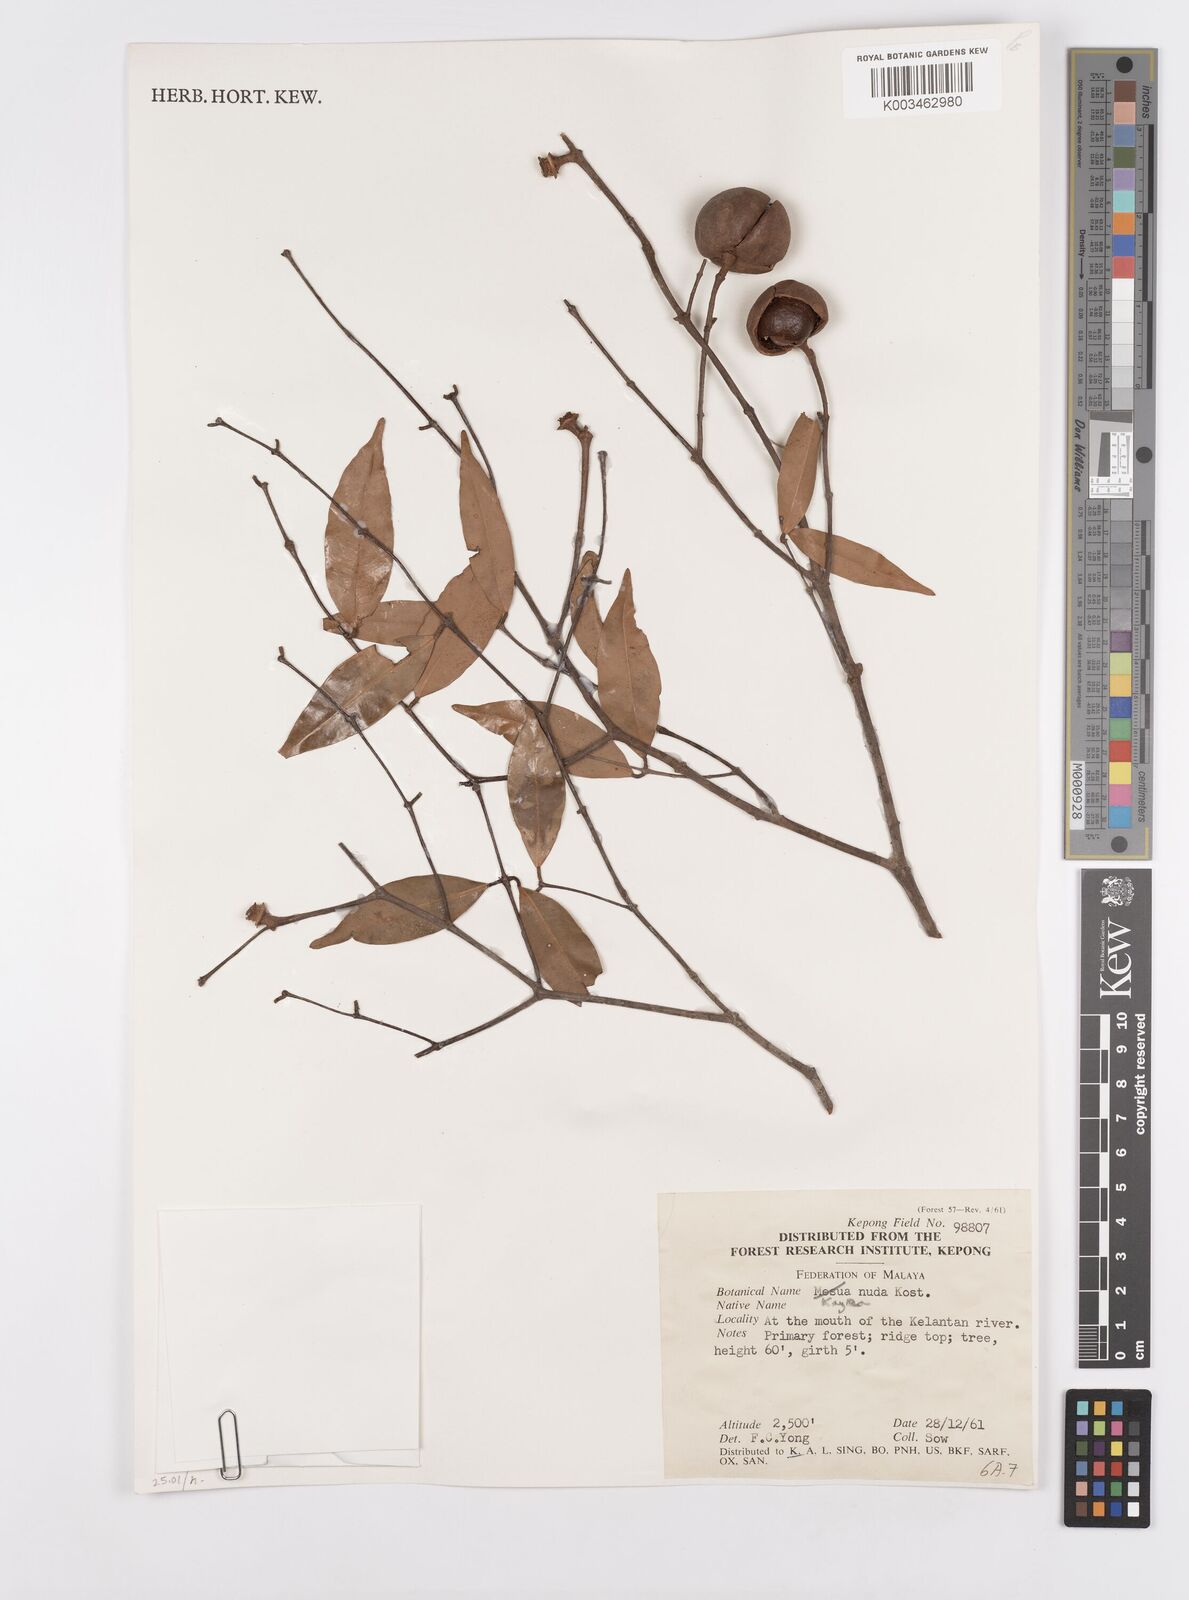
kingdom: Plantae
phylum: Tracheophyta
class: Magnoliopsida
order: Malpighiales
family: Calophyllaceae
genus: Kayea
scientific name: Kayea
